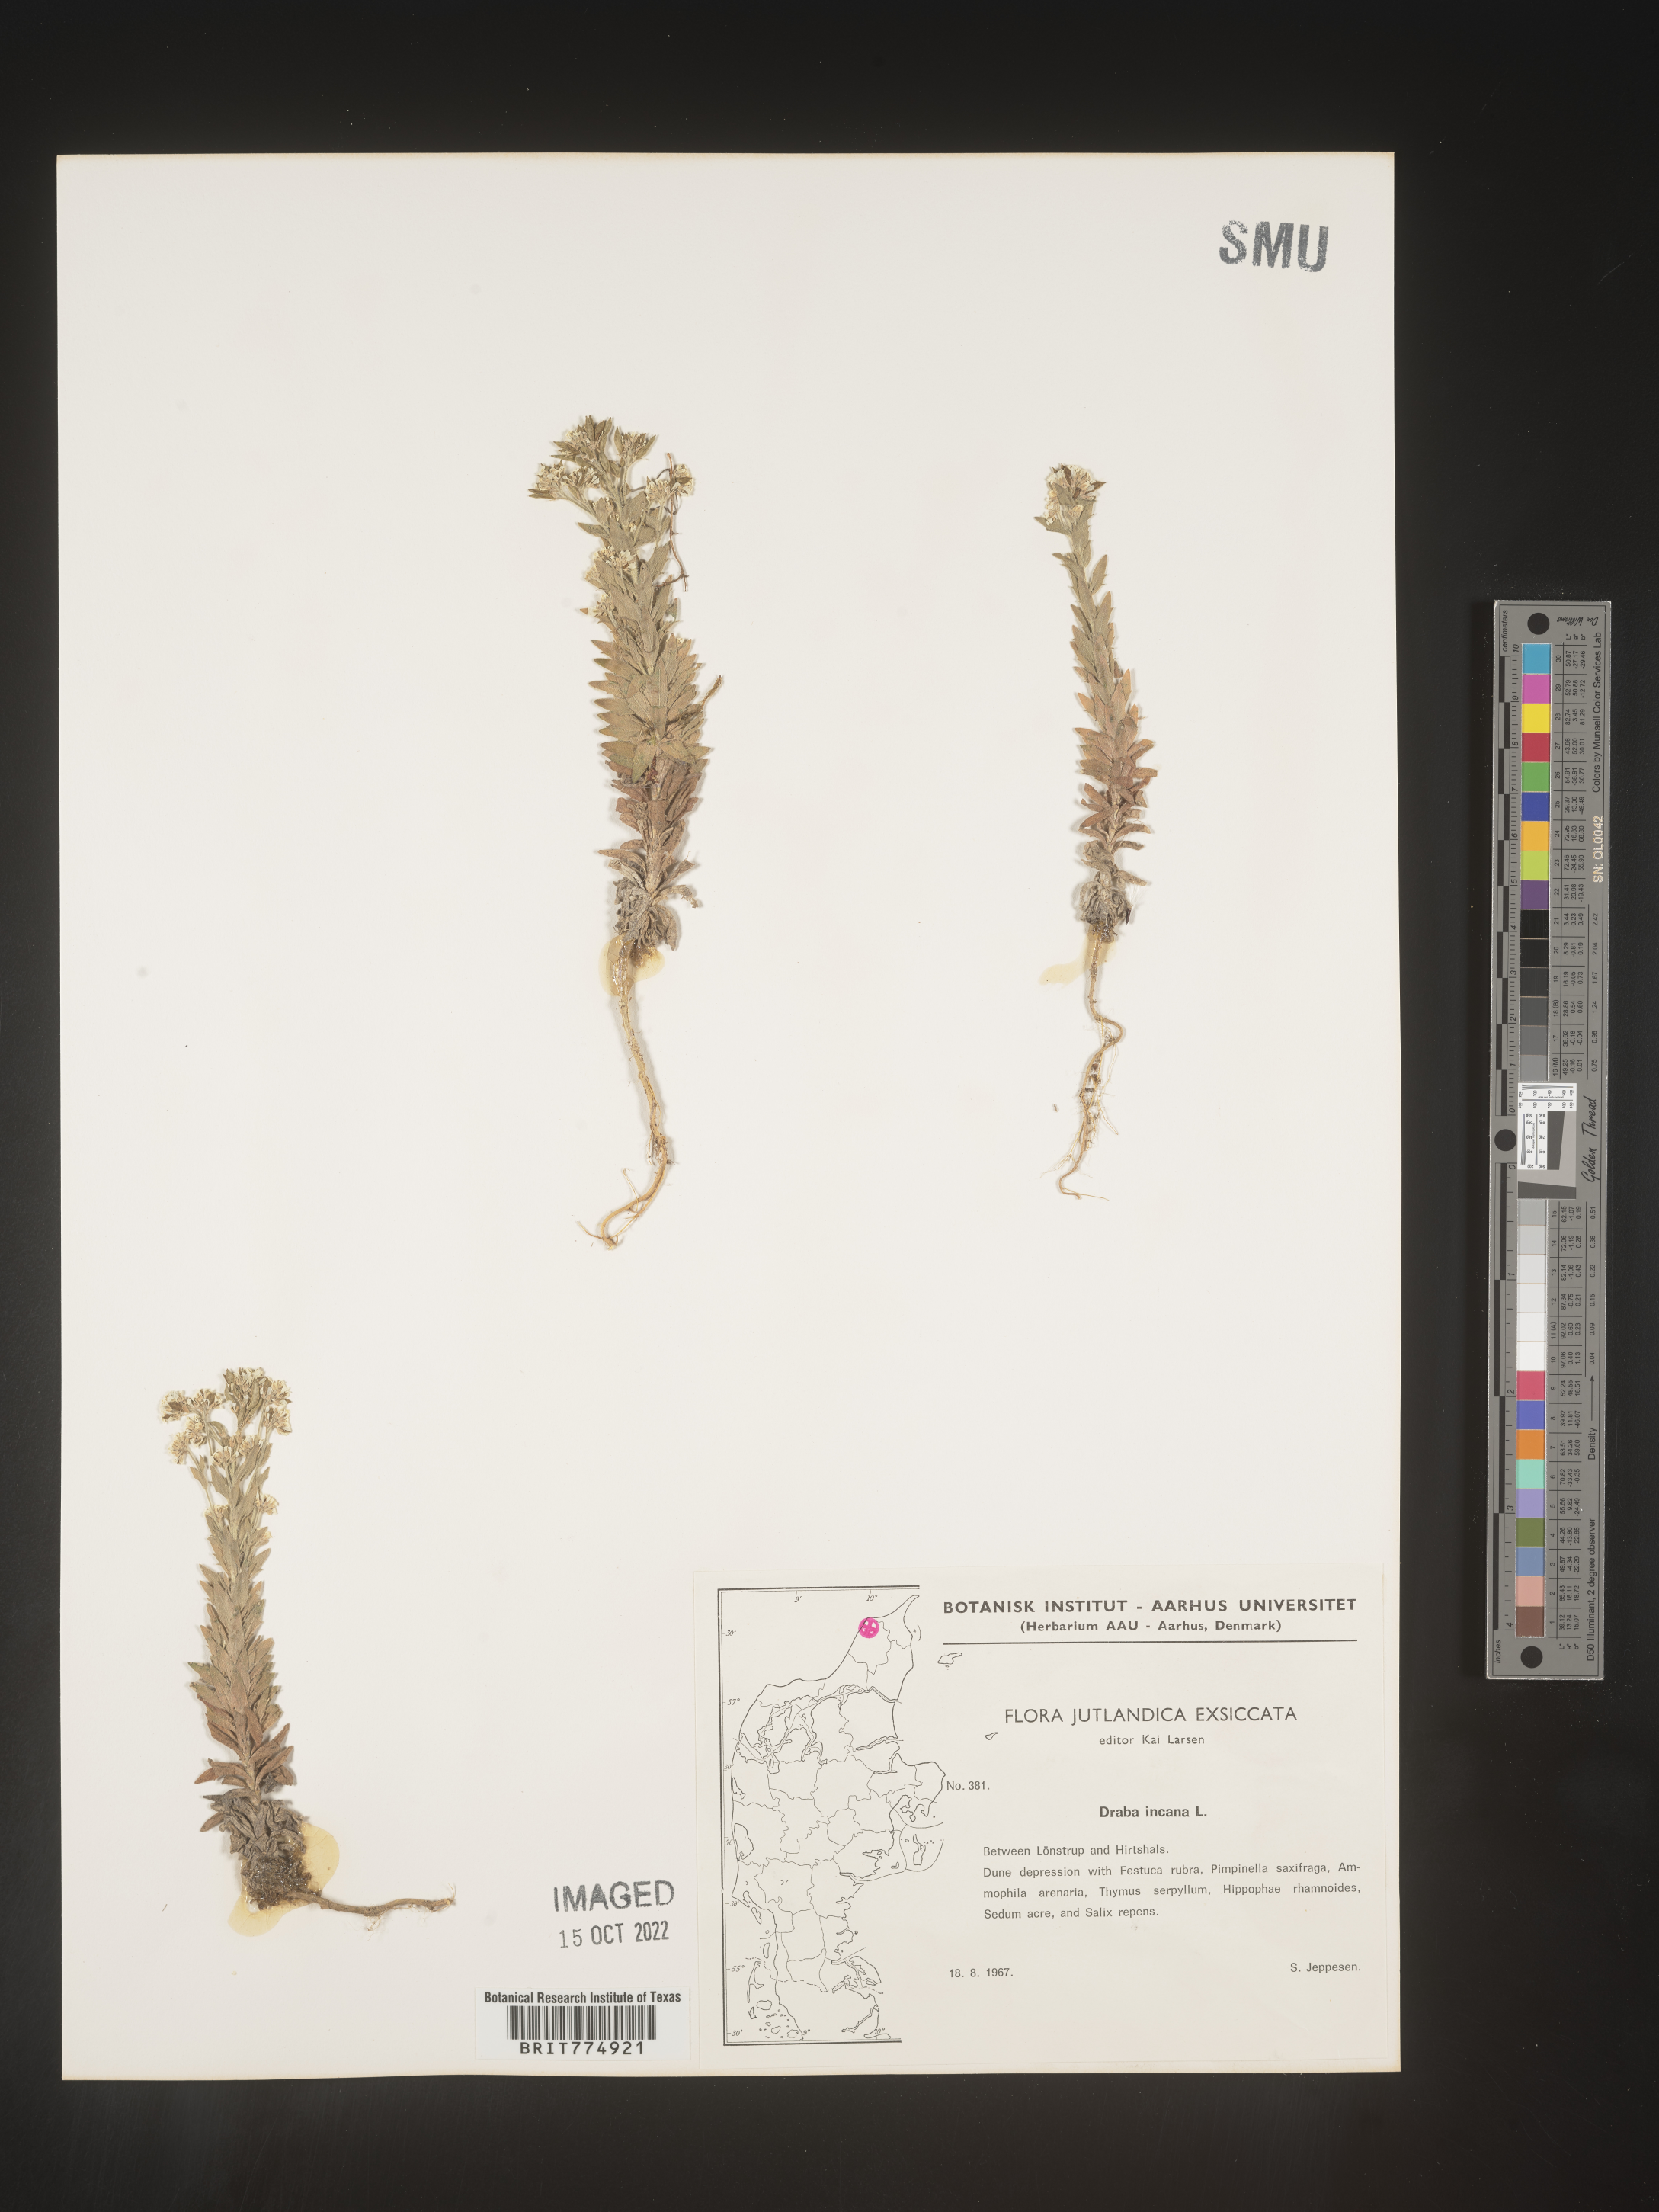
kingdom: Plantae
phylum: Tracheophyta
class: Magnoliopsida
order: Brassicales
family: Brassicaceae
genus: Draba
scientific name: Draba
